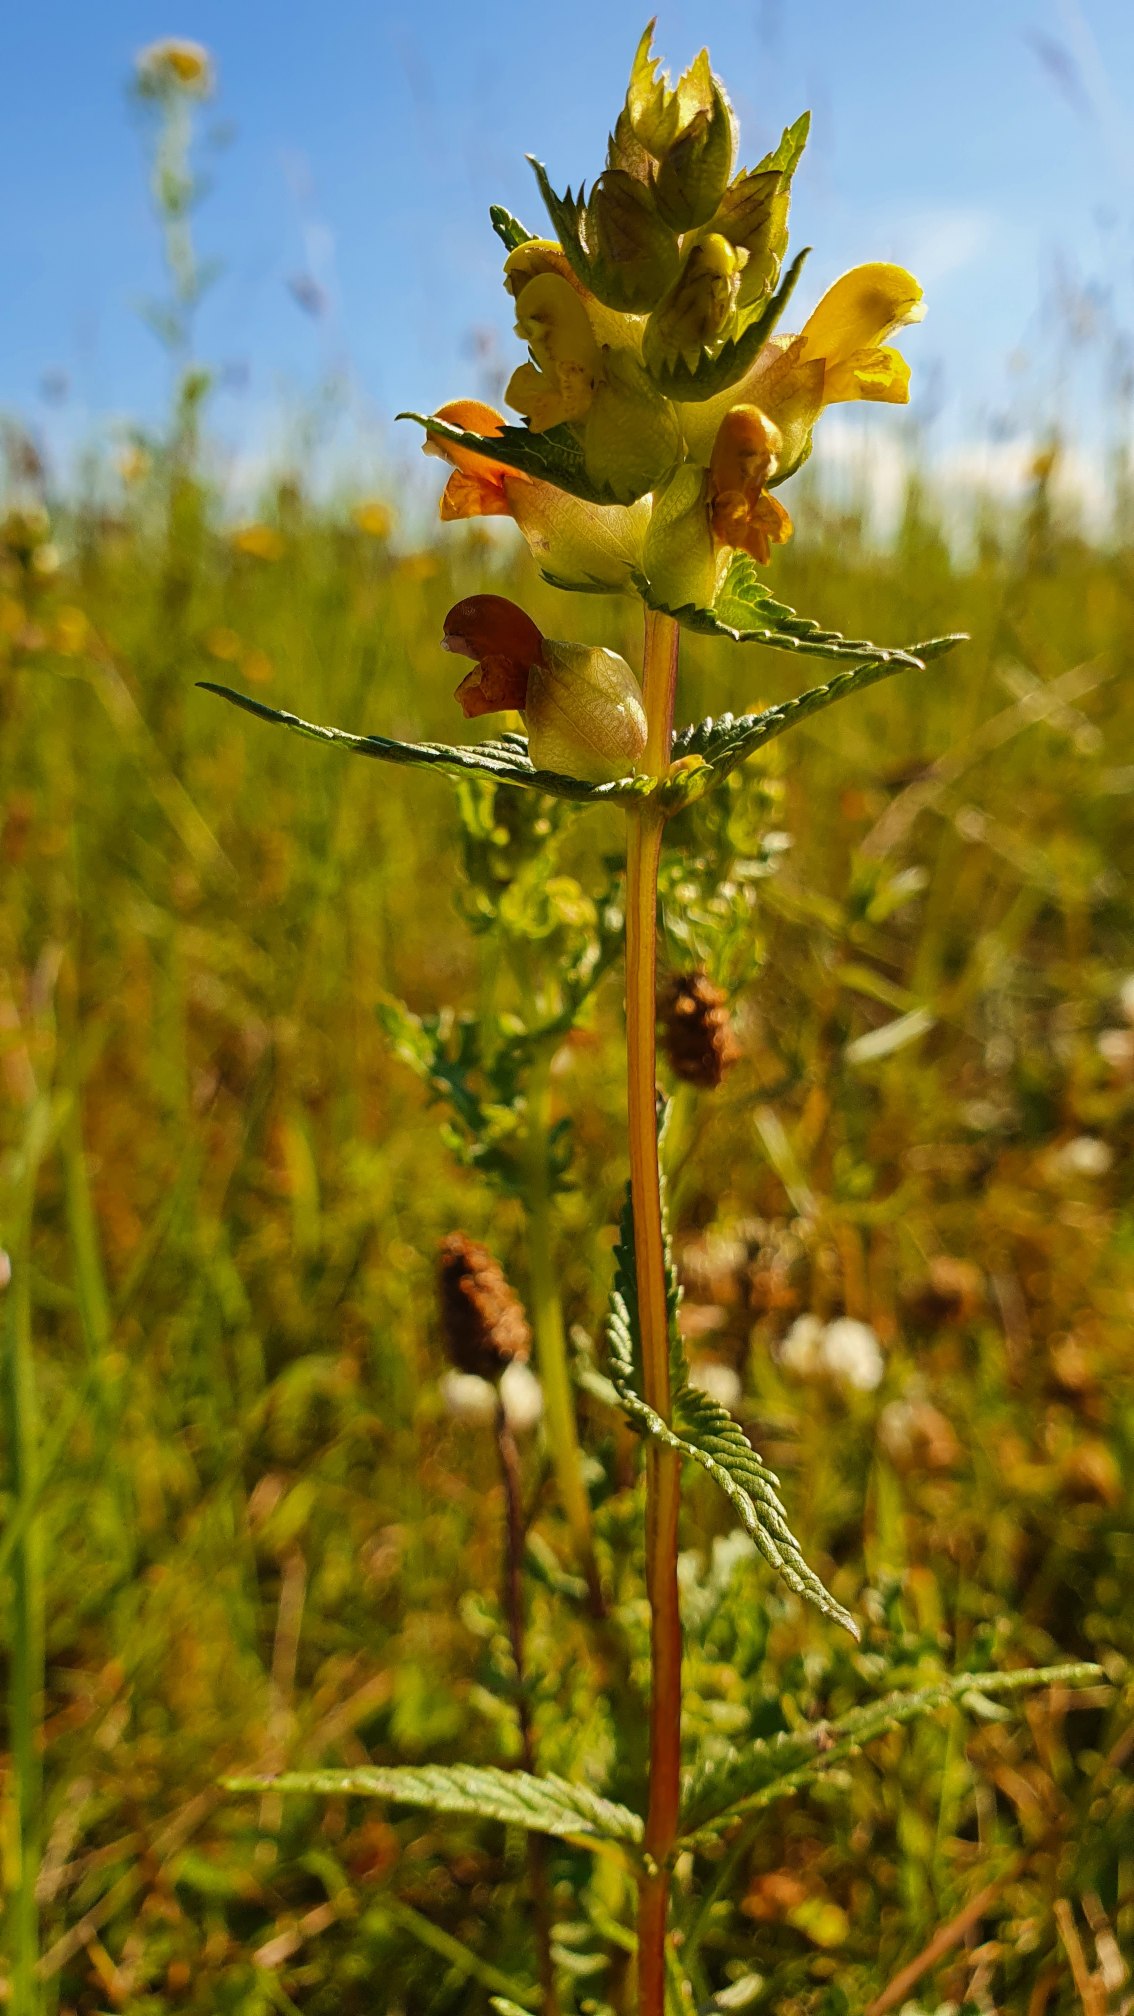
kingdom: Plantae
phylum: Tracheophyta
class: Magnoliopsida
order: Lamiales
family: Orobanchaceae
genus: Rhinanthus
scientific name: Rhinanthus minor
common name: Liden skjaller
